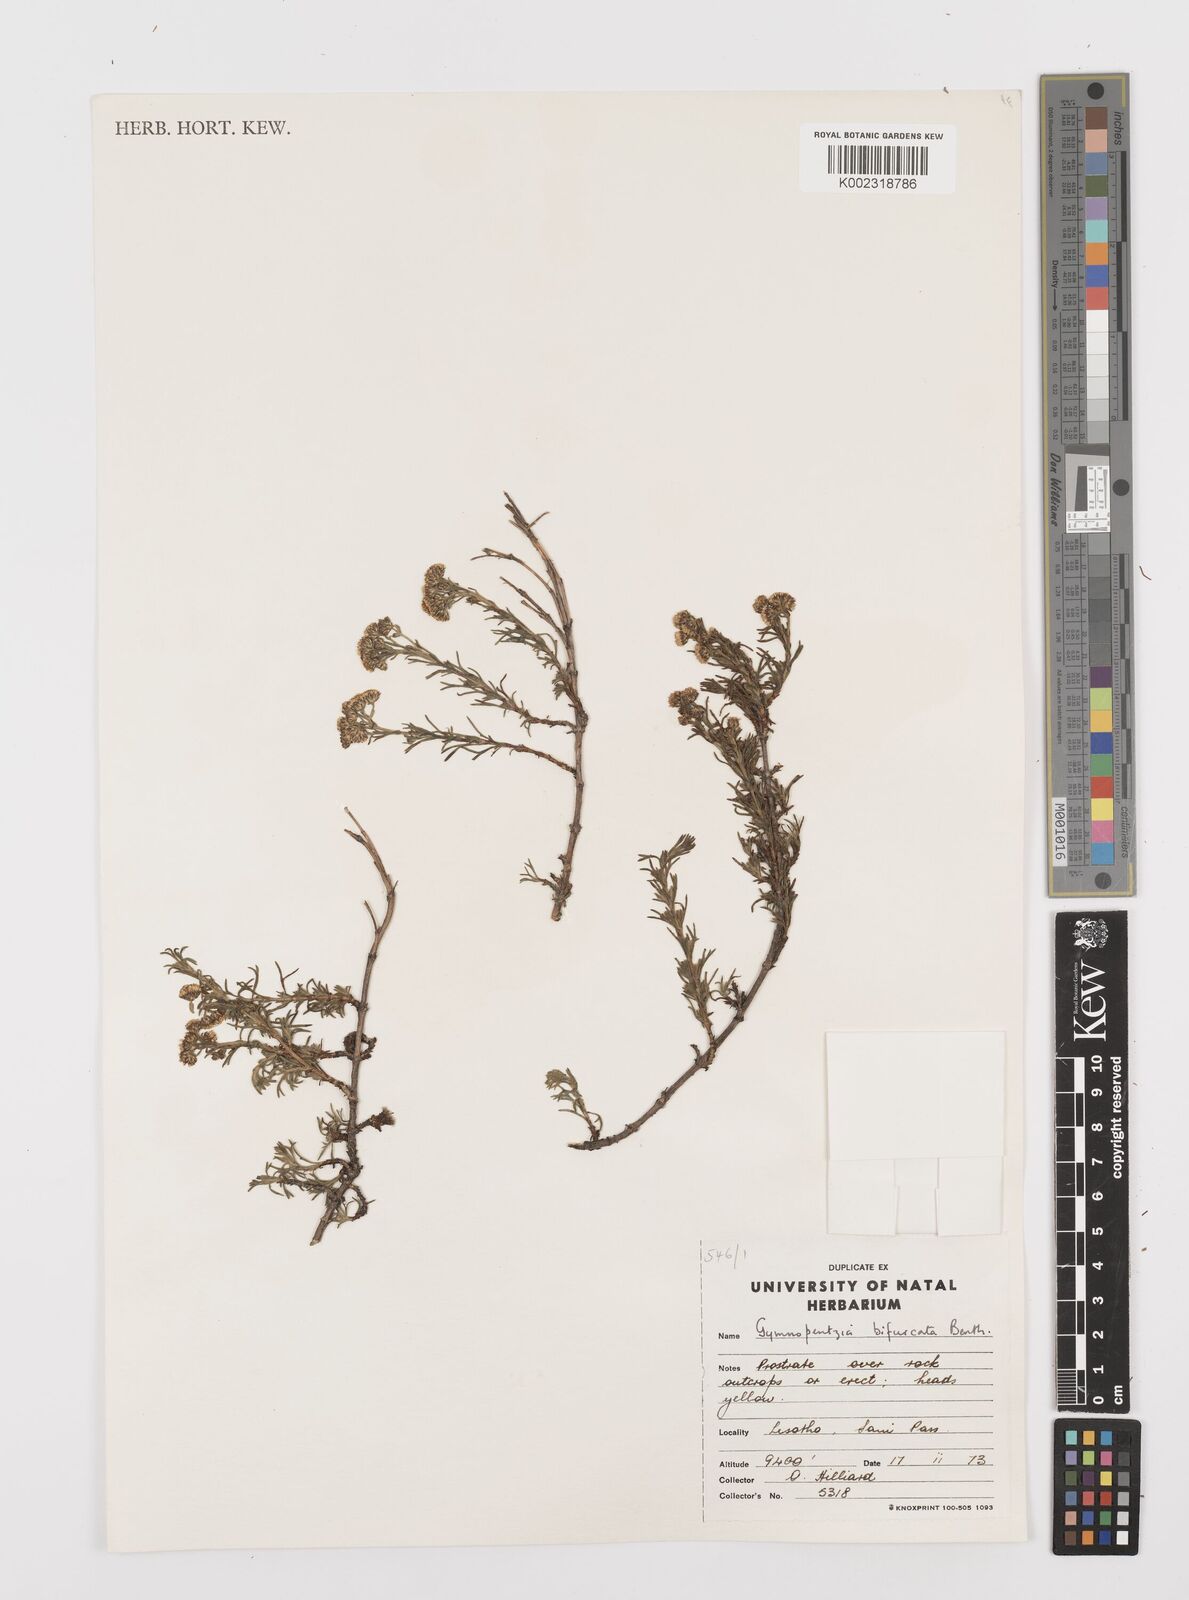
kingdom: Plantae
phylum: Tracheophyta
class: Magnoliopsida
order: Asterales
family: Asteraceae
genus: Gymnopentzia
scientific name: Gymnopentzia bifurcata
